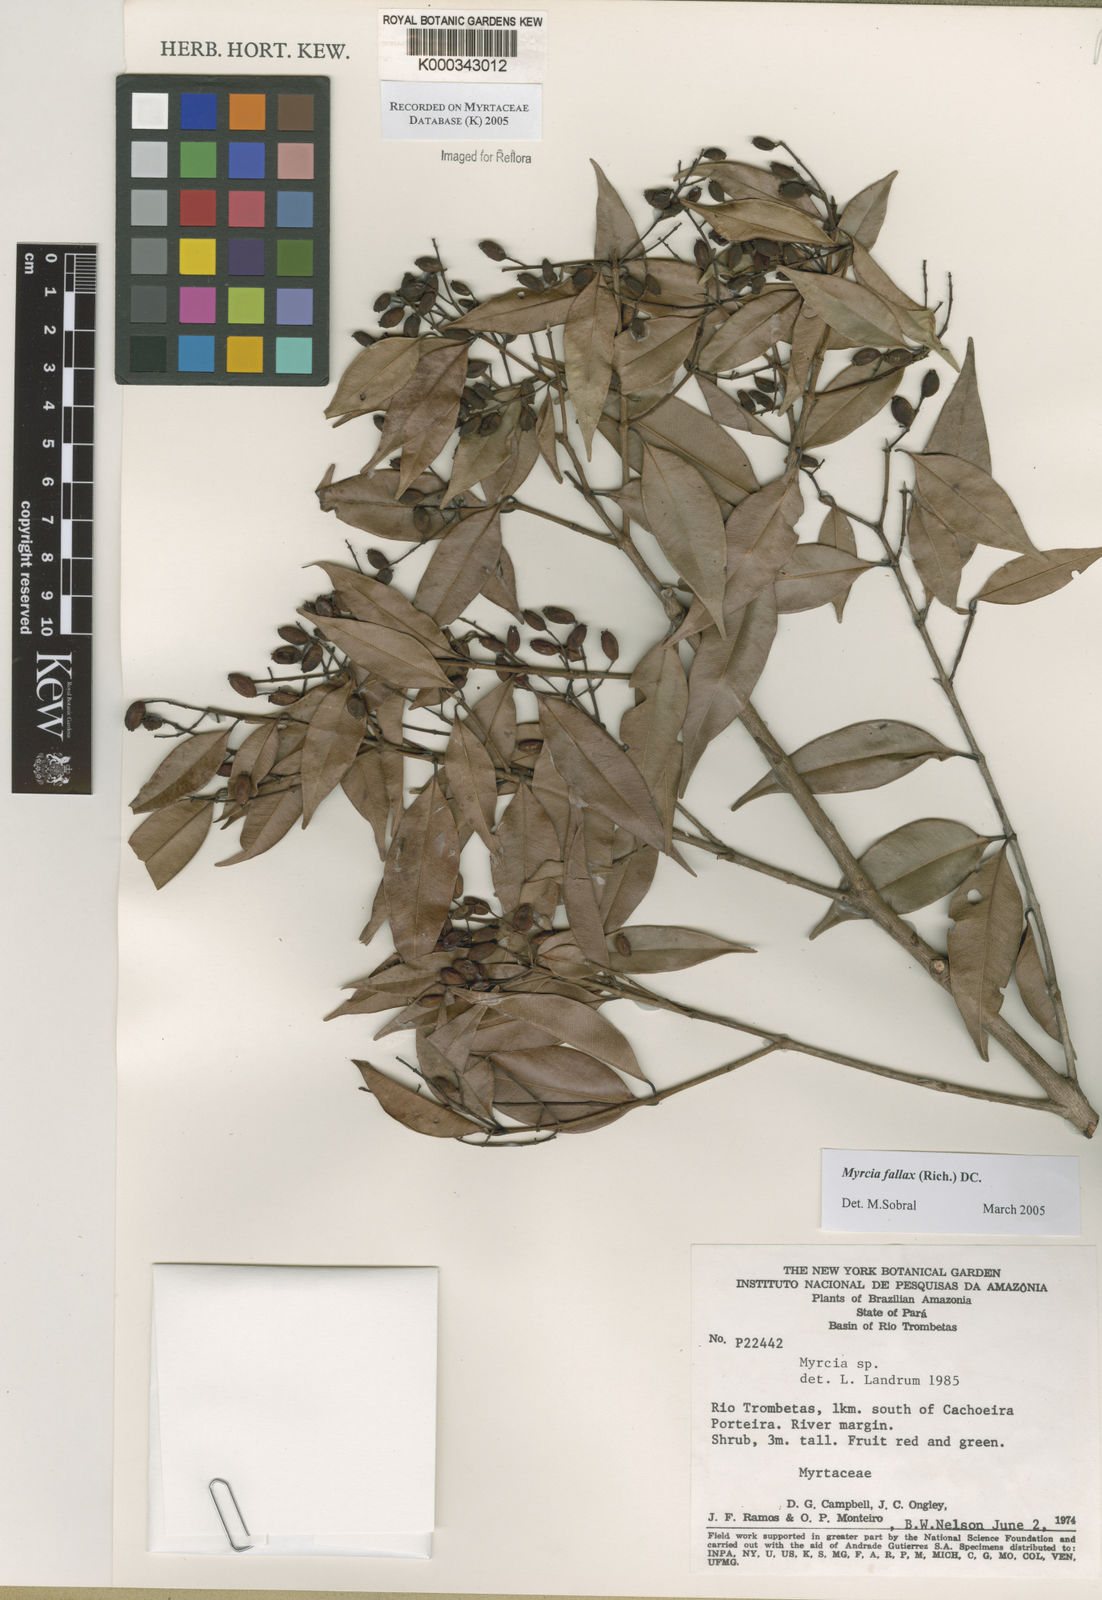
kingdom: Plantae
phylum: Tracheophyta
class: Magnoliopsida
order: Myrtales
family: Myrtaceae
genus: Myrcia
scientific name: Myrcia splendens
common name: Surinam cherry
